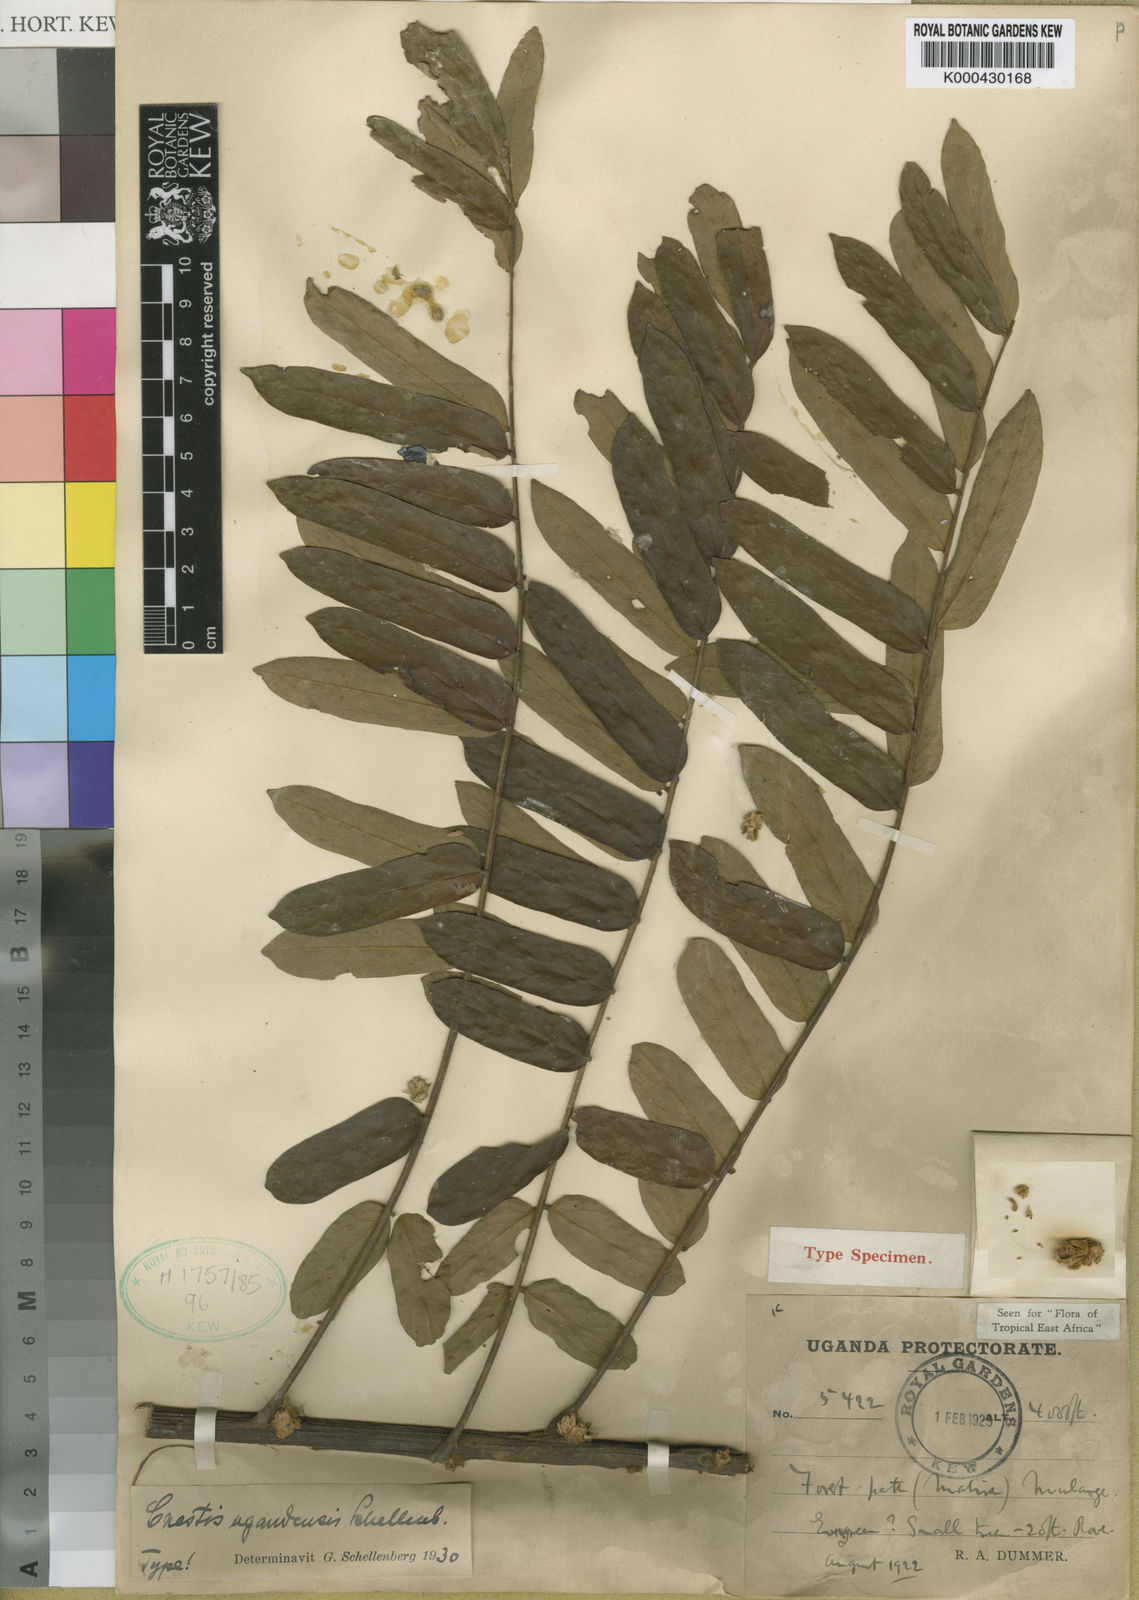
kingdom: Plantae
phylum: Tracheophyta
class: Magnoliopsida
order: Oxalidales
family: Connaraceae
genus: Cnestis
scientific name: Cnestis mildbraedii
